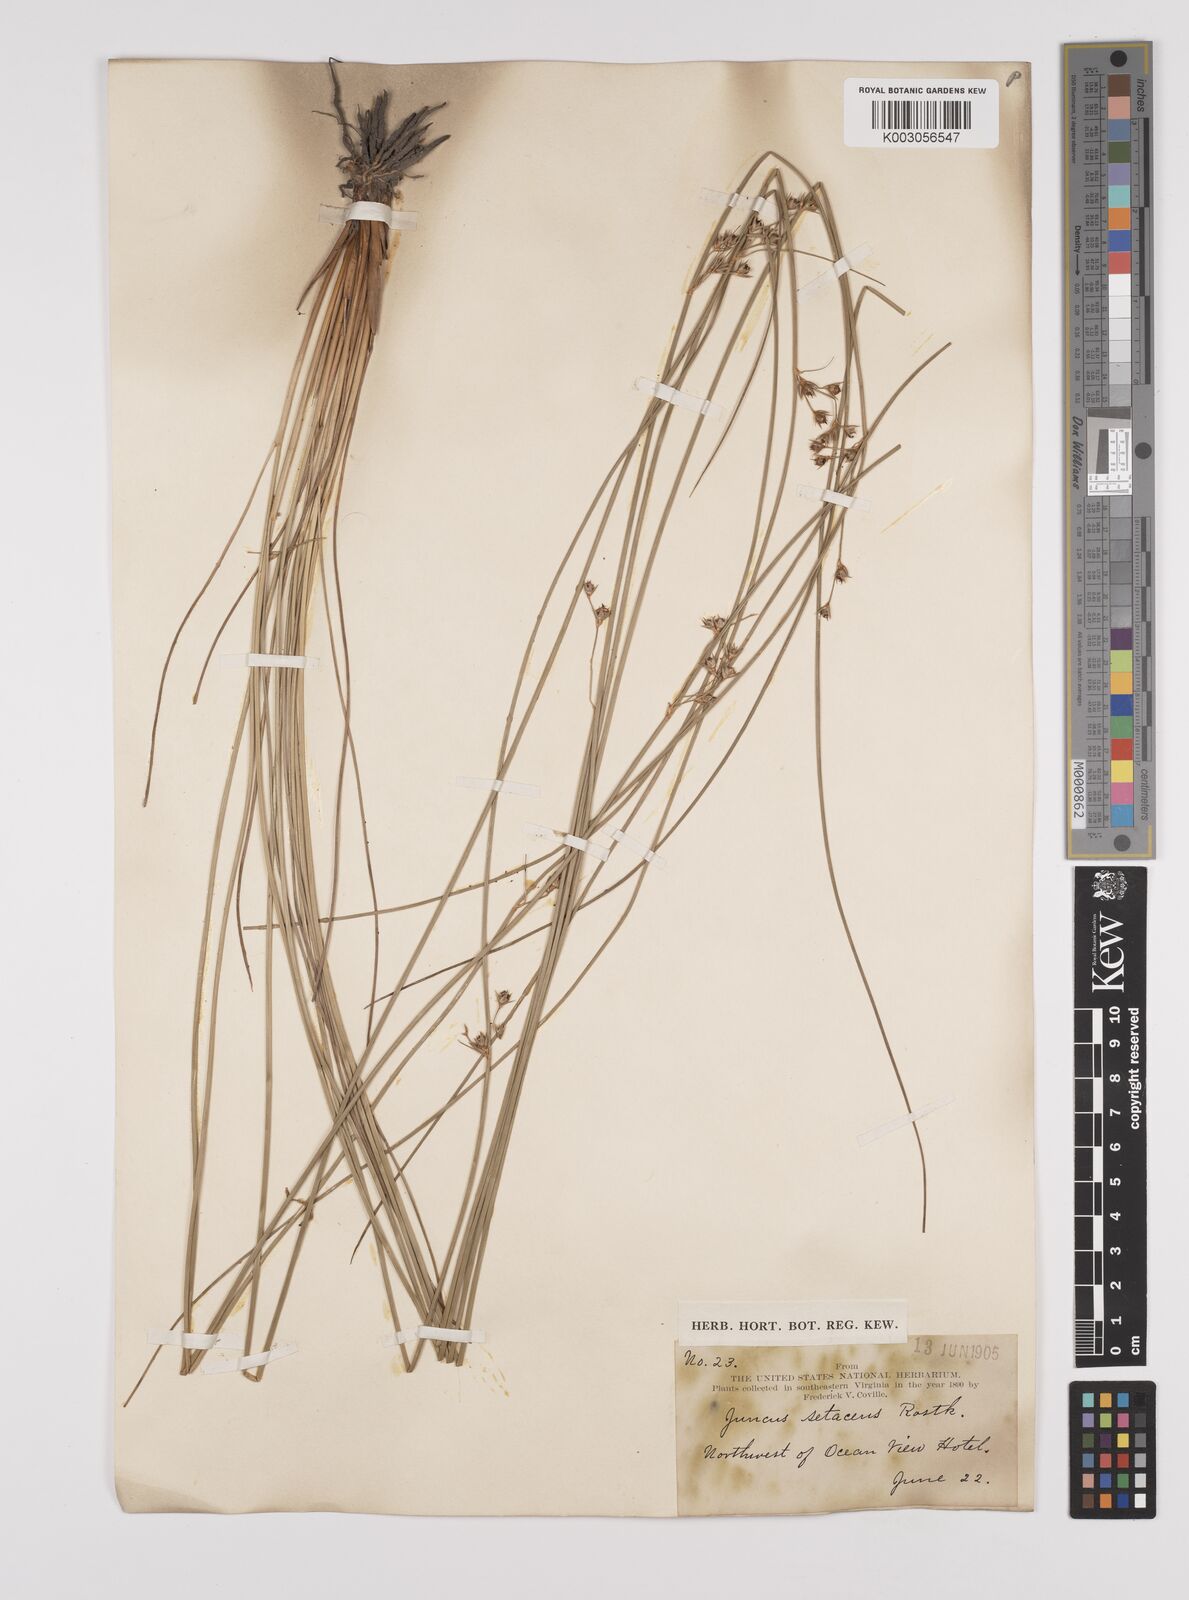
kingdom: Plantae
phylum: Tracheophyta
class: Liliopsida
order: Poales
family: Juncaceae
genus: Juncus
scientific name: Juncus balticus
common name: Baltic rush
